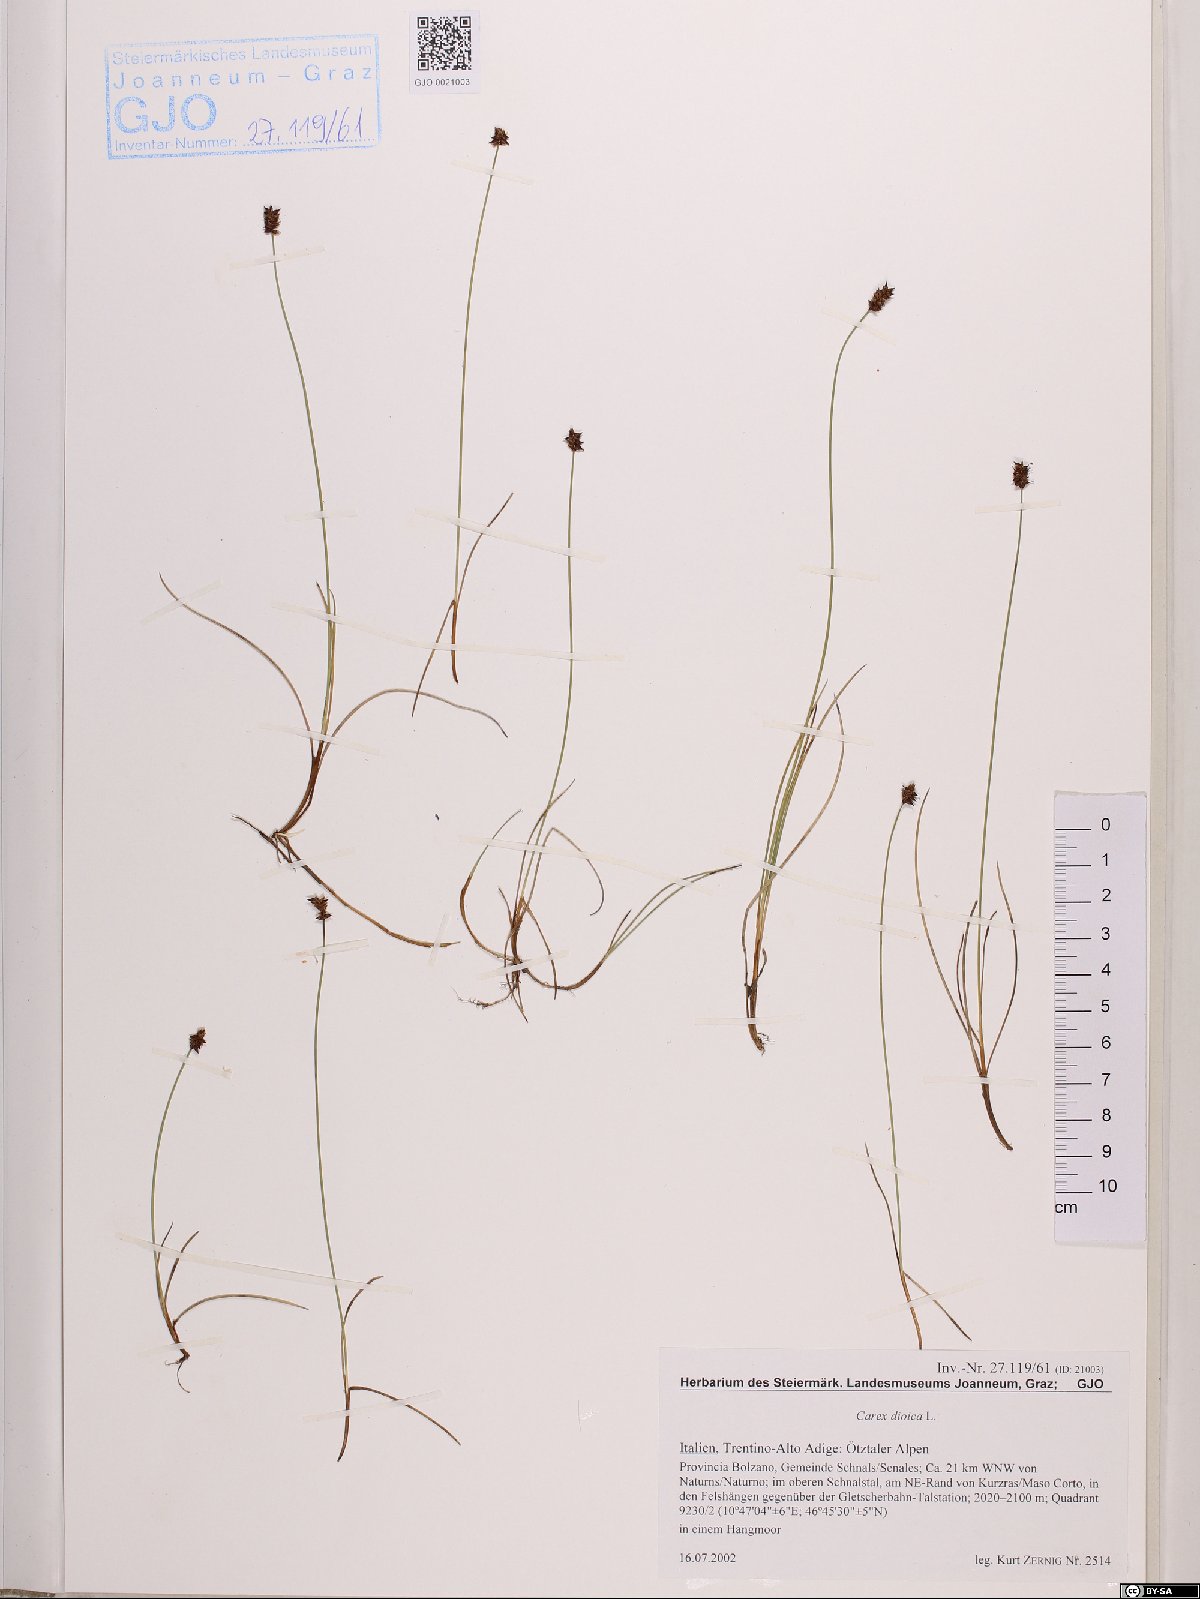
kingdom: Plantae
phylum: Tracheophyta
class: Liliopsida
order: Poales
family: Cyperaceae
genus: Carex
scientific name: Carex dioica
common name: Dioecious sedge
